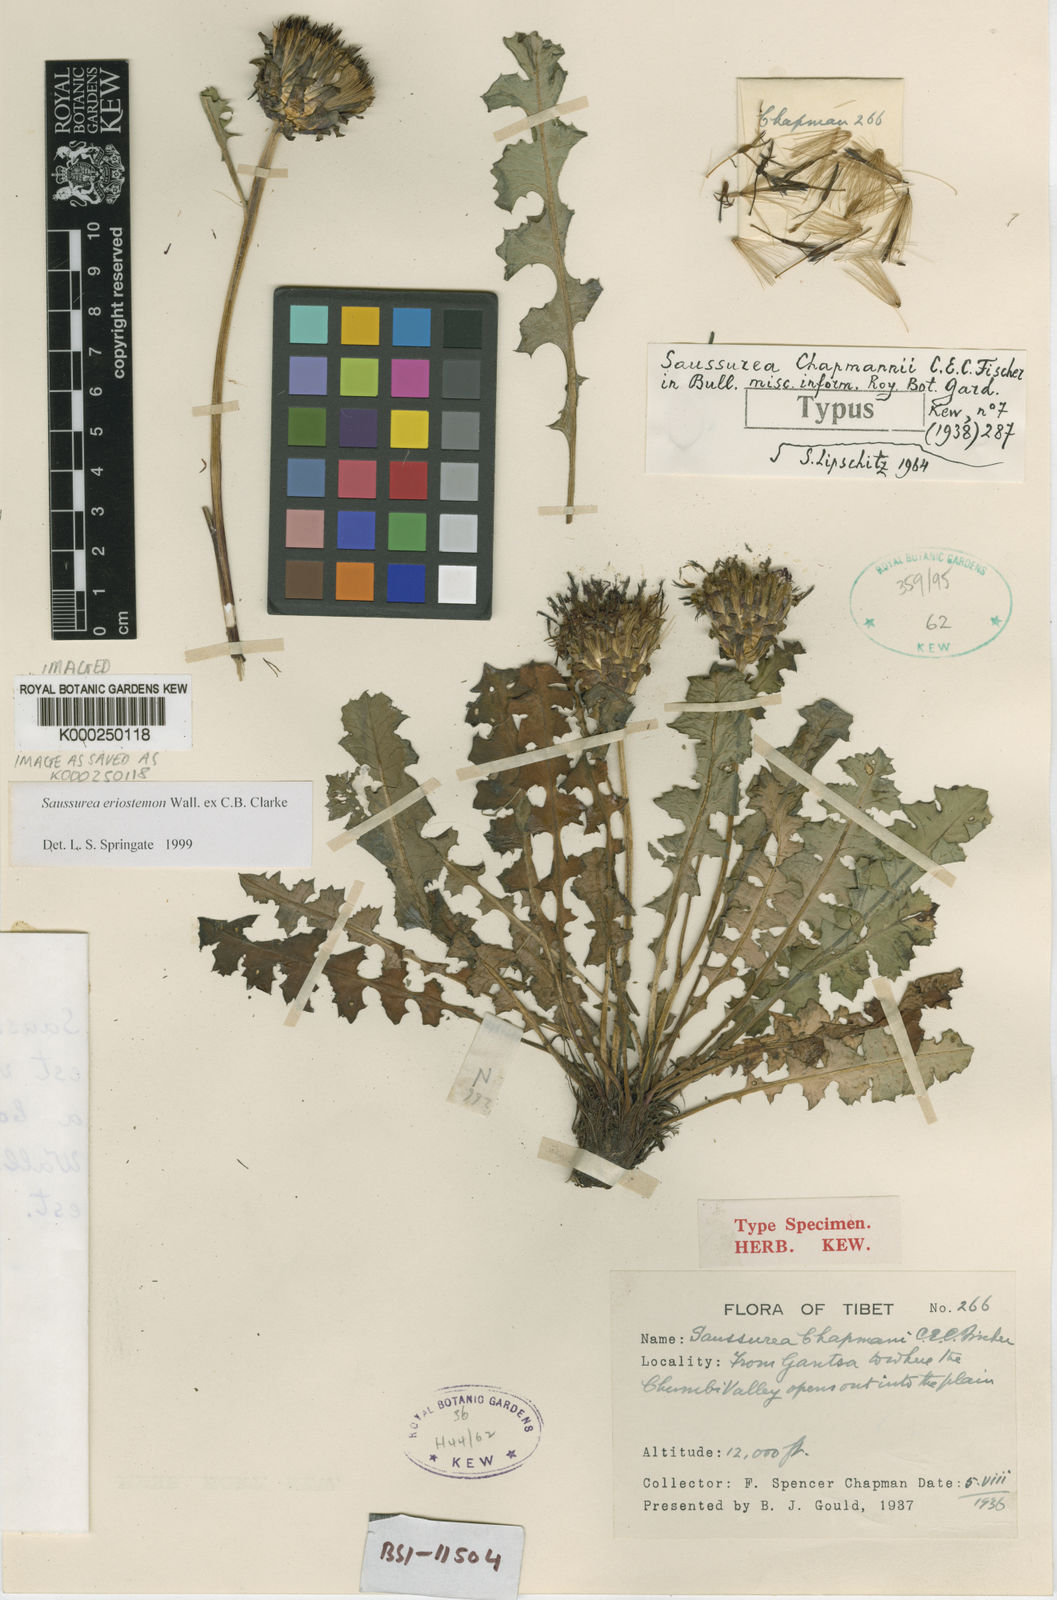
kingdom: Plantae
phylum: Tracheophyta
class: Magnoliopsida
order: Asterales
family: Asteraceae
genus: Saussurea
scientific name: Saussurea eriostemon
